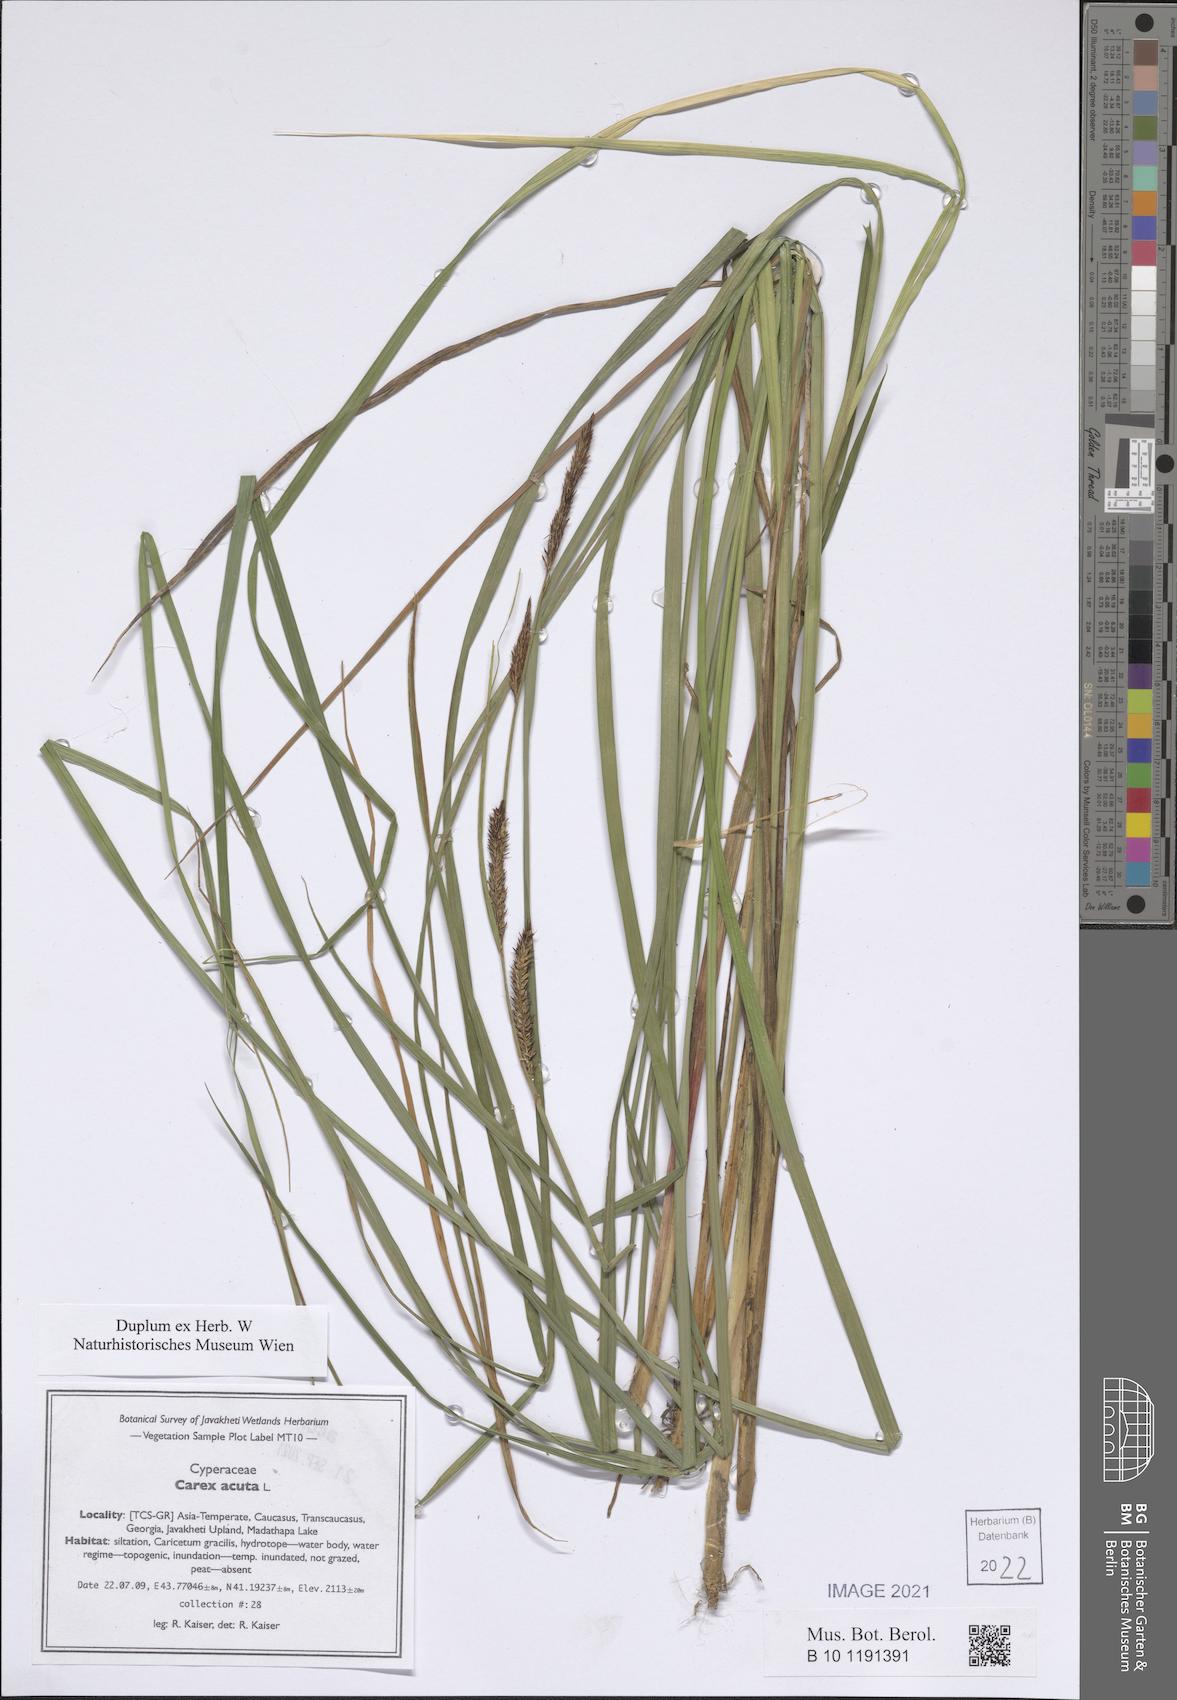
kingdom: Plantae
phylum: Tracheophyta
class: Liliopsida
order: Poales
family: Cyperaceae
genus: Carex
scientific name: Carex acuta
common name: Slender tufted-sedge
